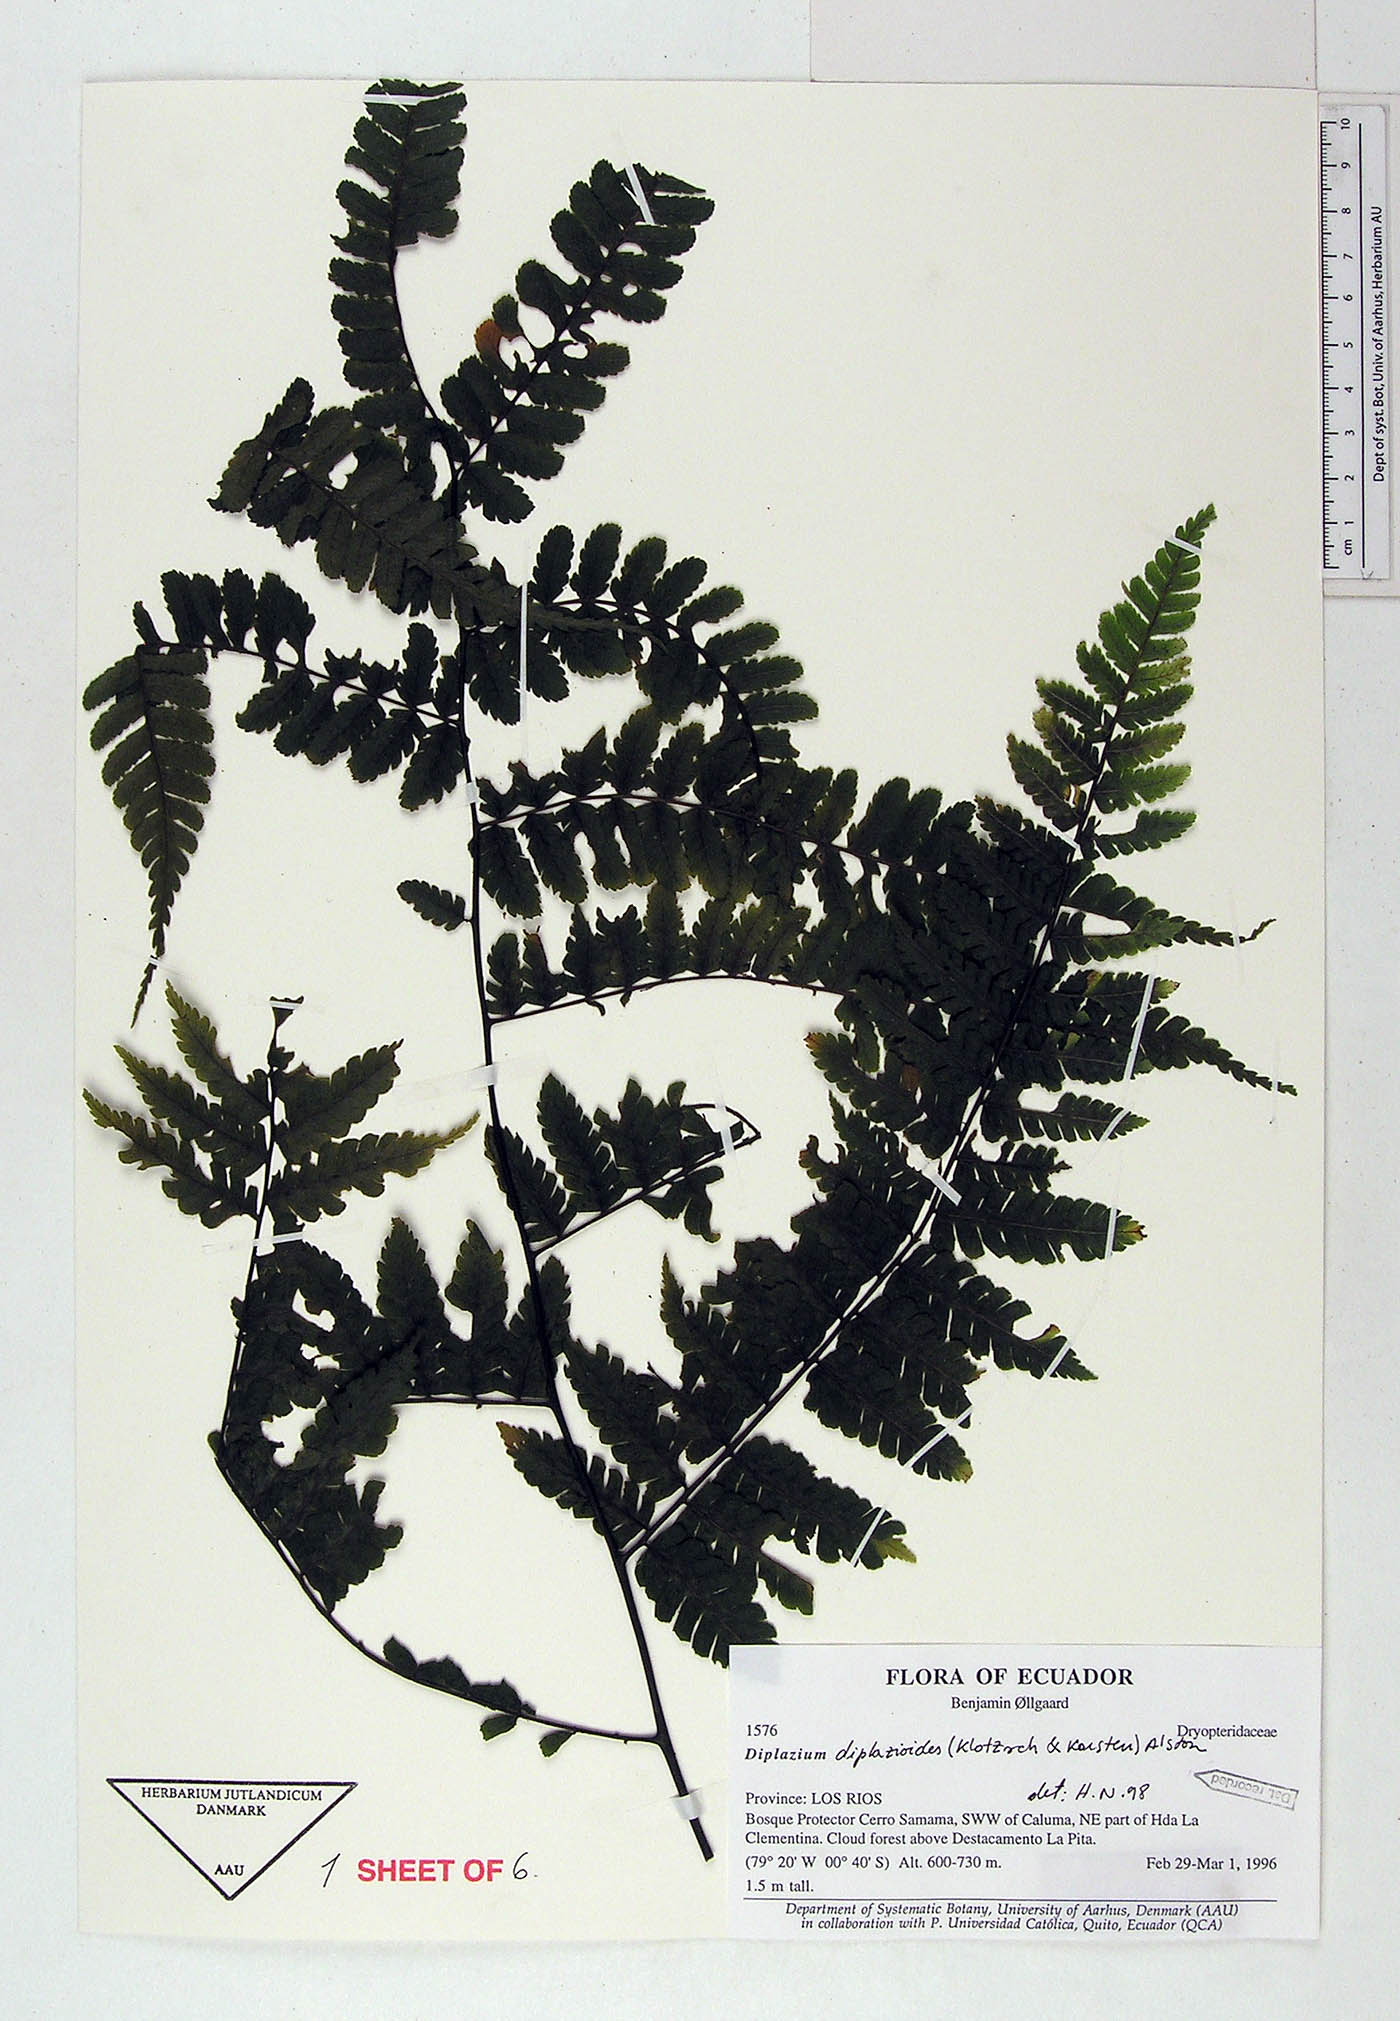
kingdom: Plantae
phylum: Tracheophyta
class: Polypodiopsida
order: Polypodiales
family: Athyriaceae
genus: Diplazium
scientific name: Diplazium diplazioides
